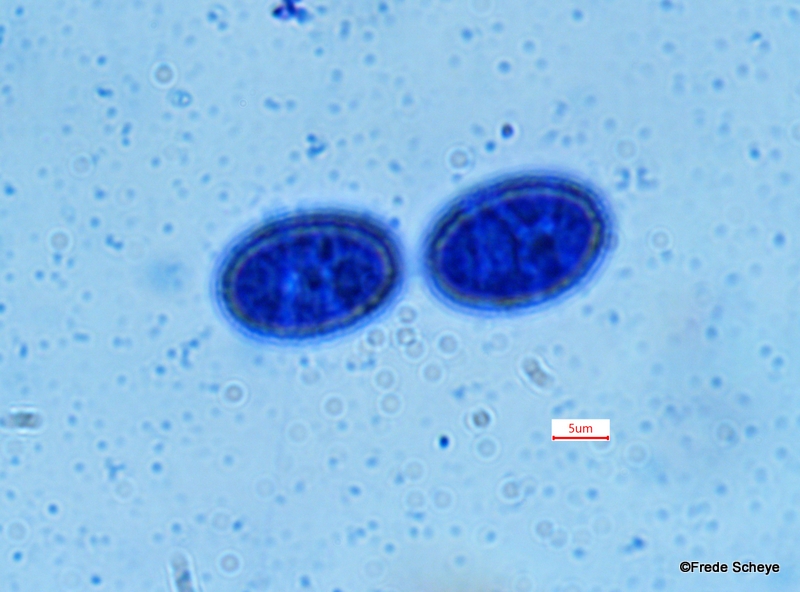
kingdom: Fungi
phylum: Ascomycota
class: Pezizomycetes
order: Pezizales
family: Pyronemataceae
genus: Scutellinia
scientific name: Scutellinia crinita
